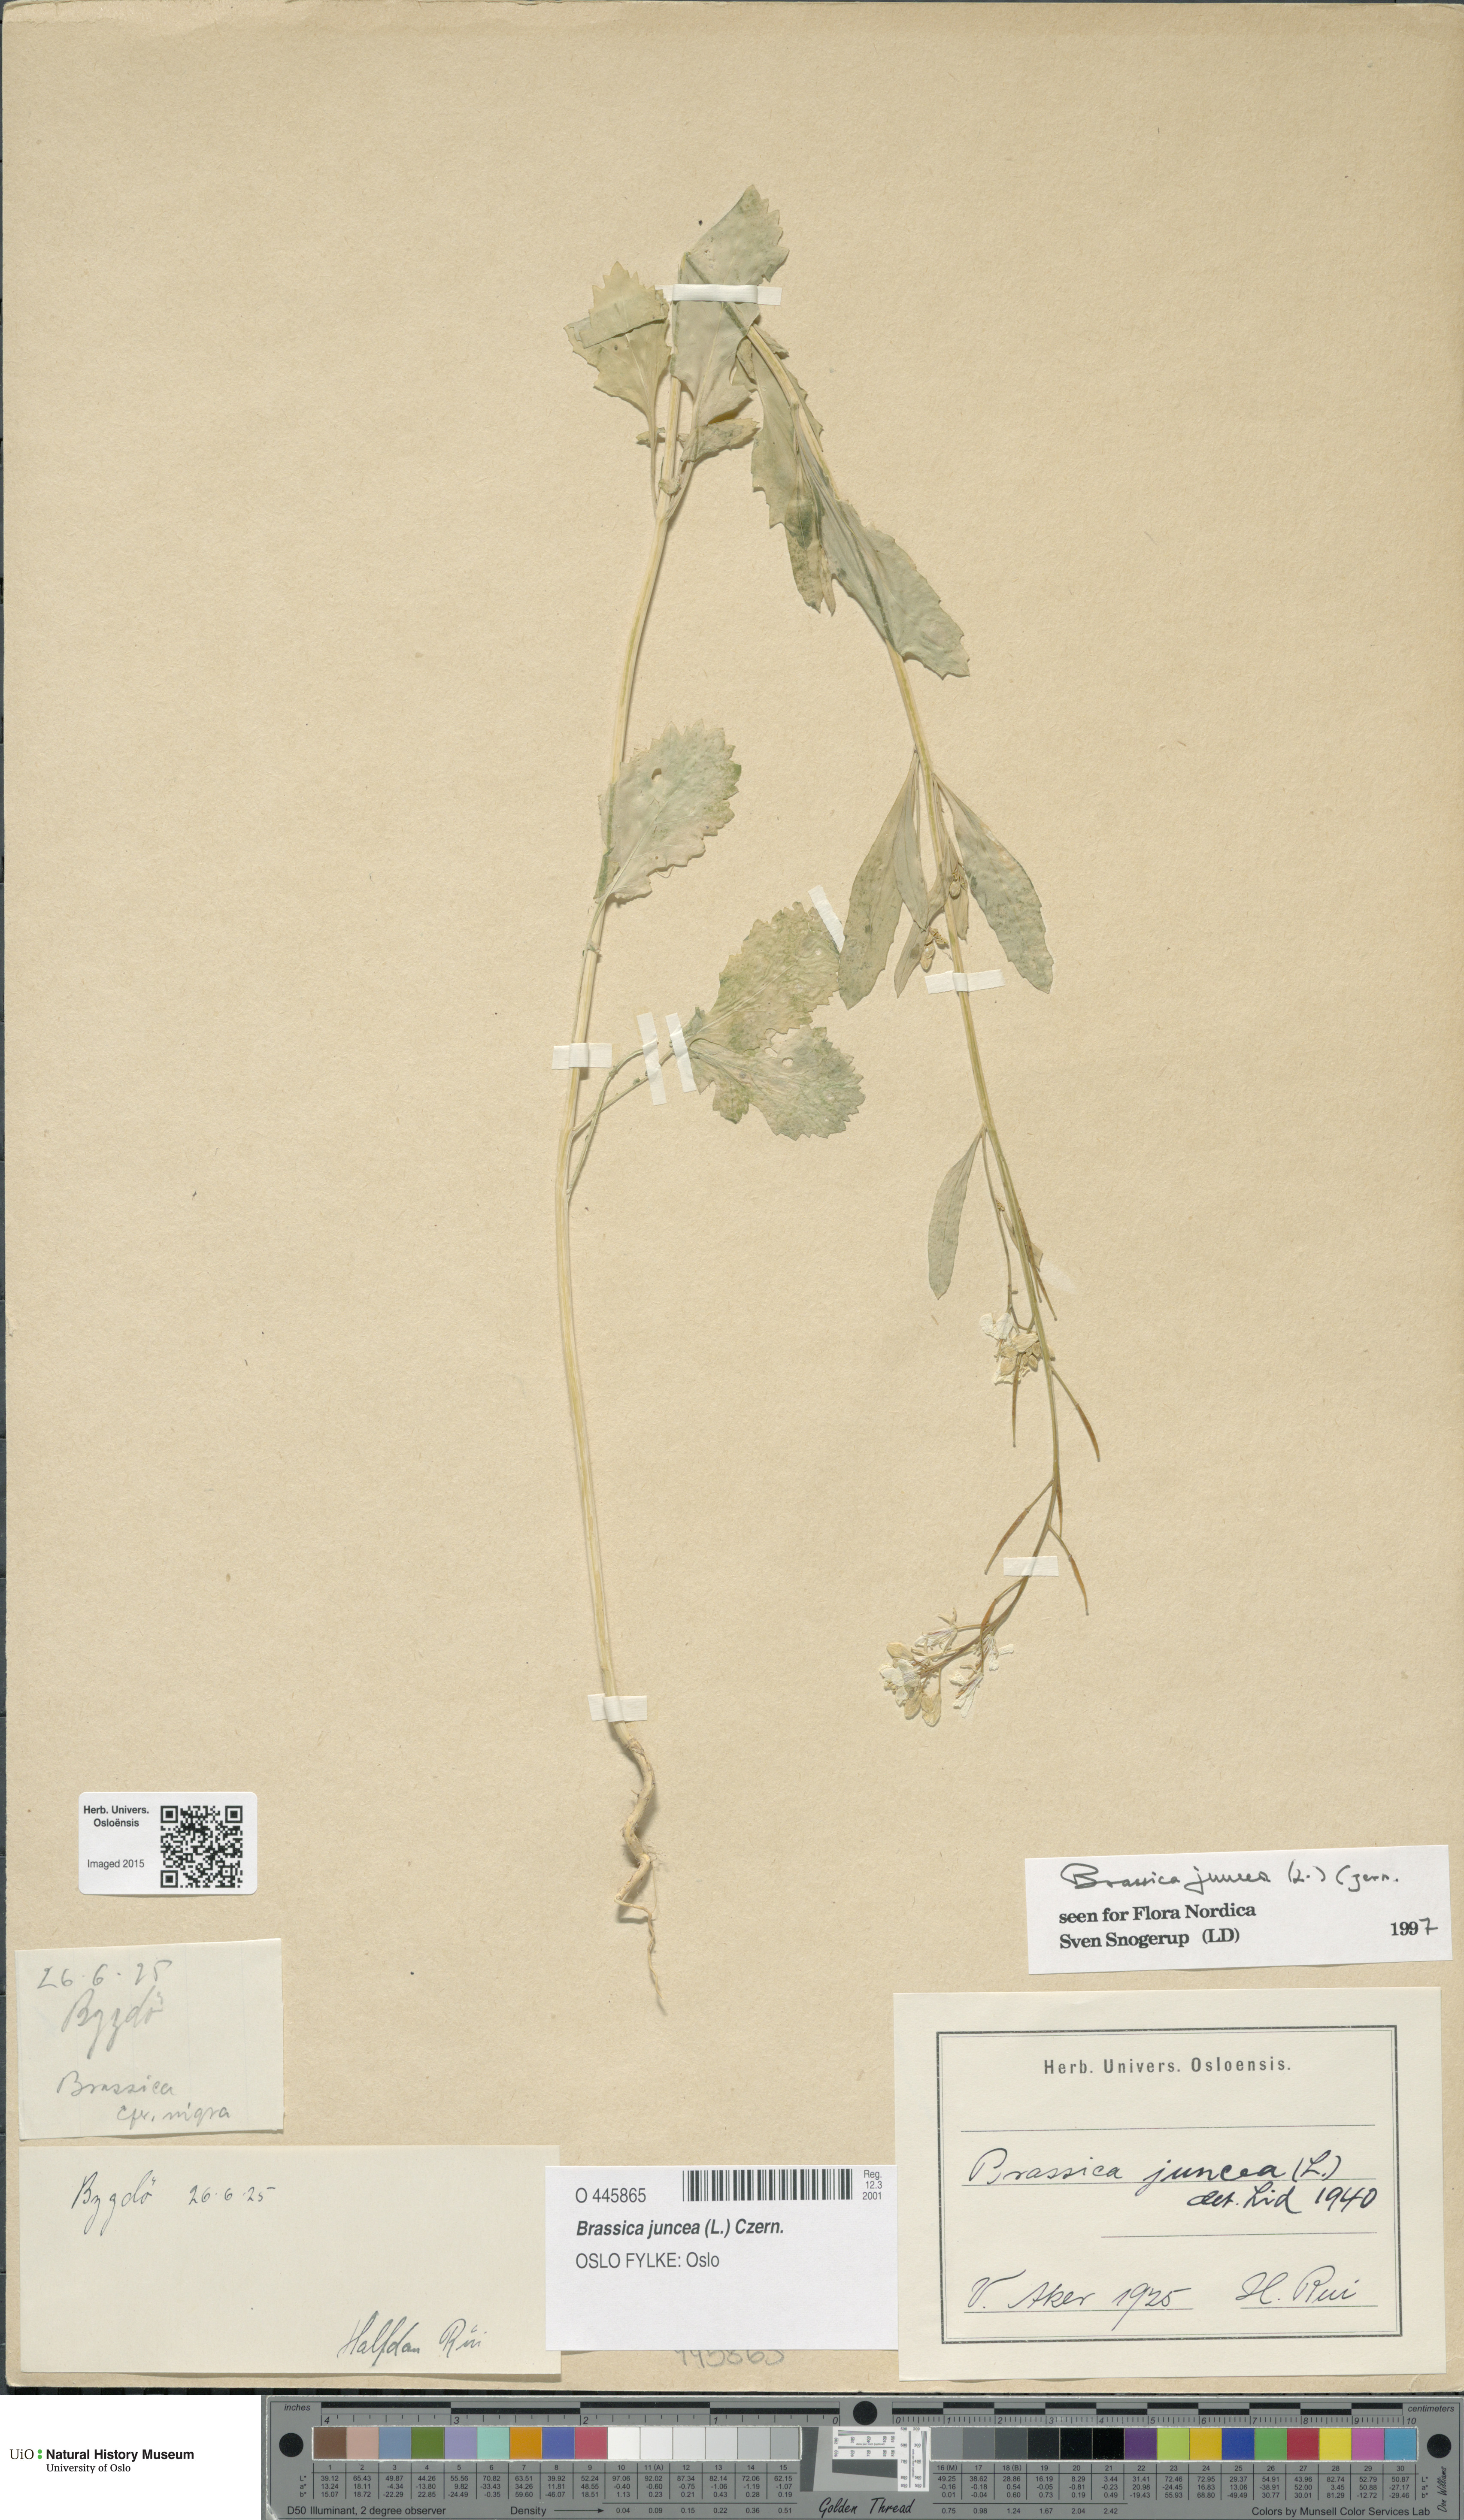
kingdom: Plantae
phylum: Tracheophyta
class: Magnoliopsida
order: Brassicales
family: Brassicaceae
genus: Brassica
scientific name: Brassica juncea
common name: Brown mustard
